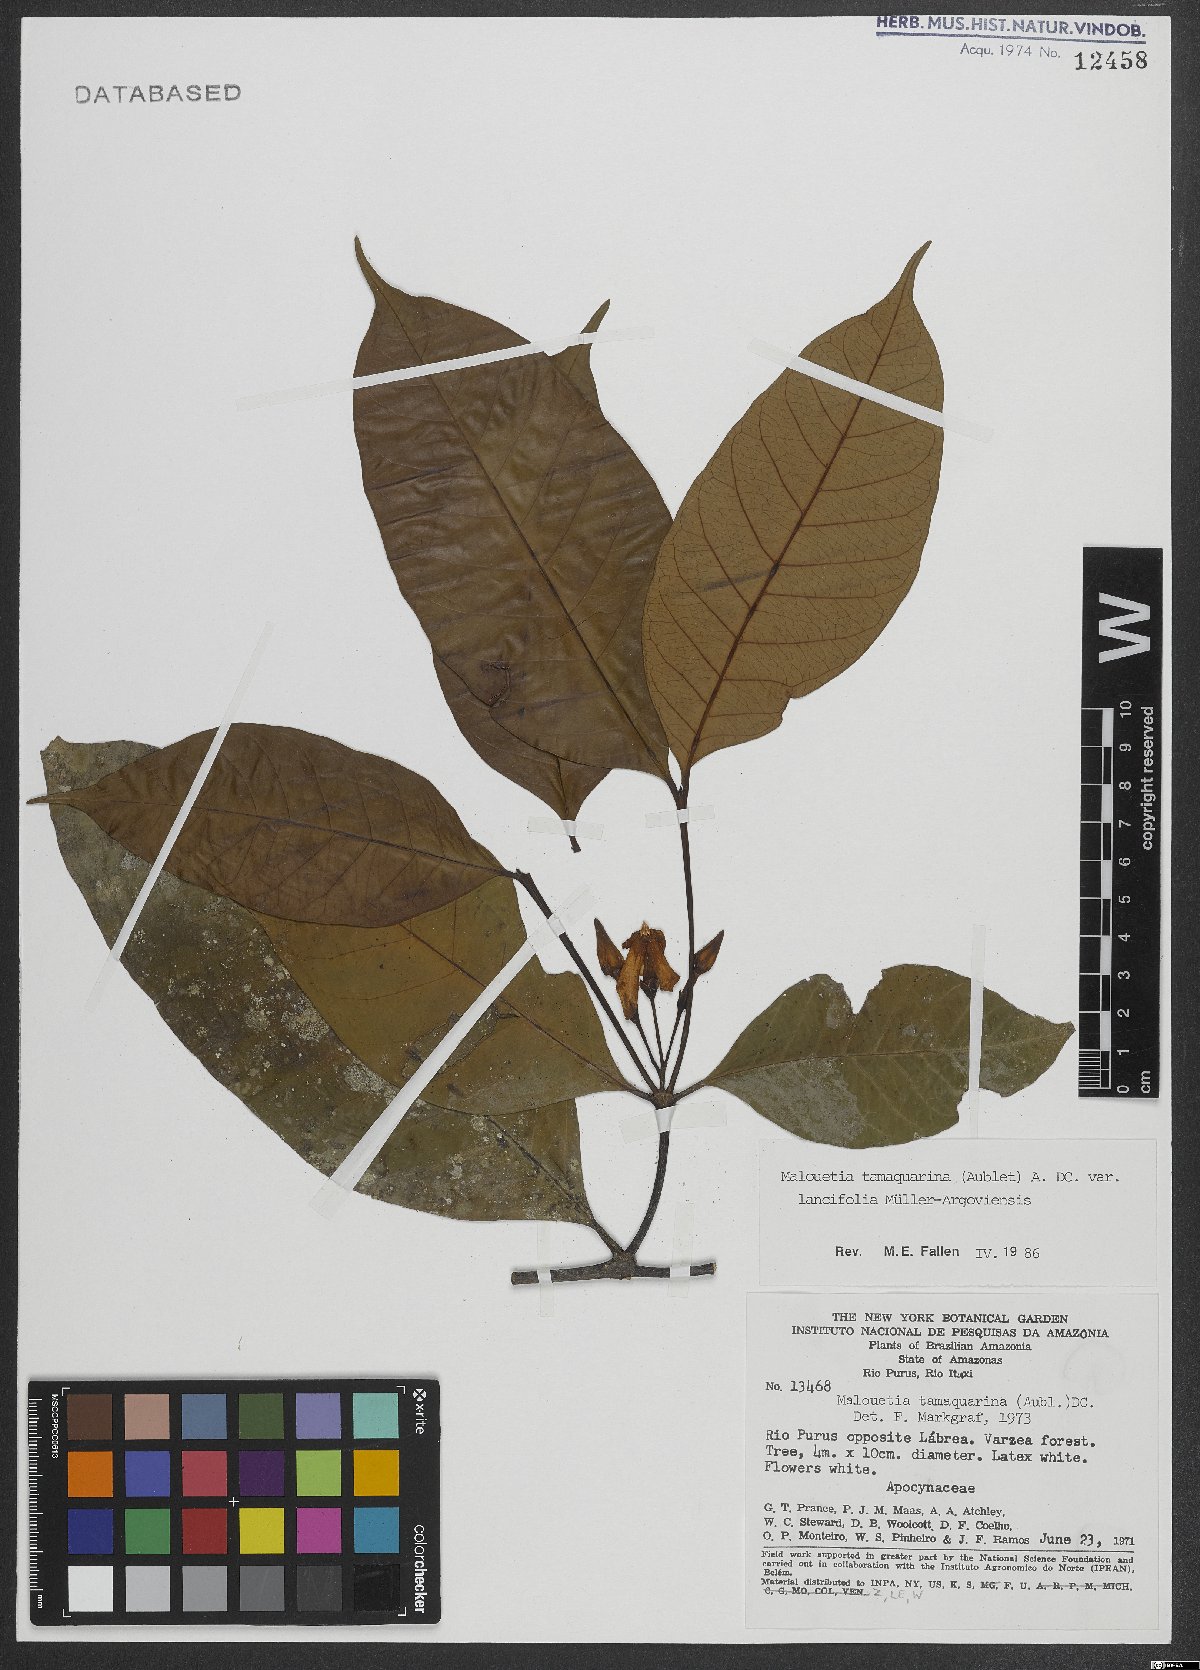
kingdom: Plantae
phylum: Tracheophyta
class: Magnoliopsida
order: Gentianales
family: Apocynaceae
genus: Malouetia
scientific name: Malouetia tamaquarina
